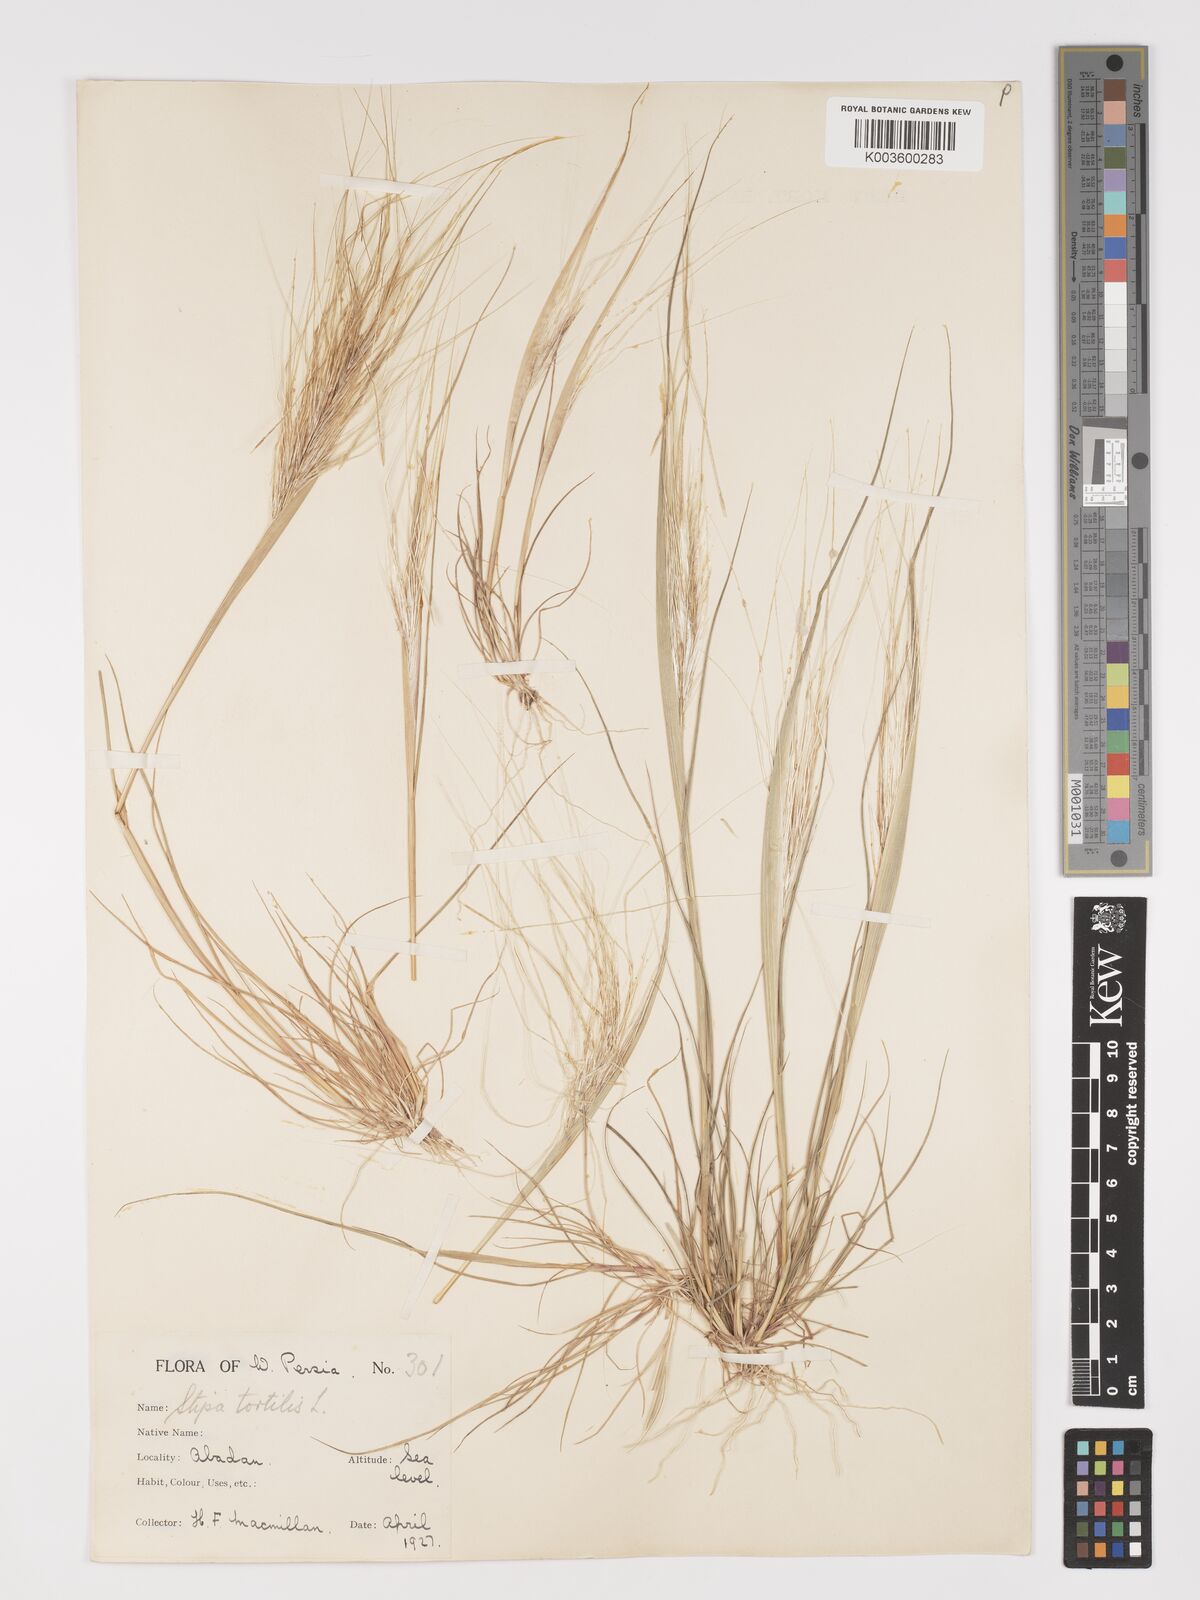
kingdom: Plantae
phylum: Tracheophyta
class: Liliopsida
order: Poales
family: Poaceae
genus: Stipellula
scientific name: Stipellula capensis
